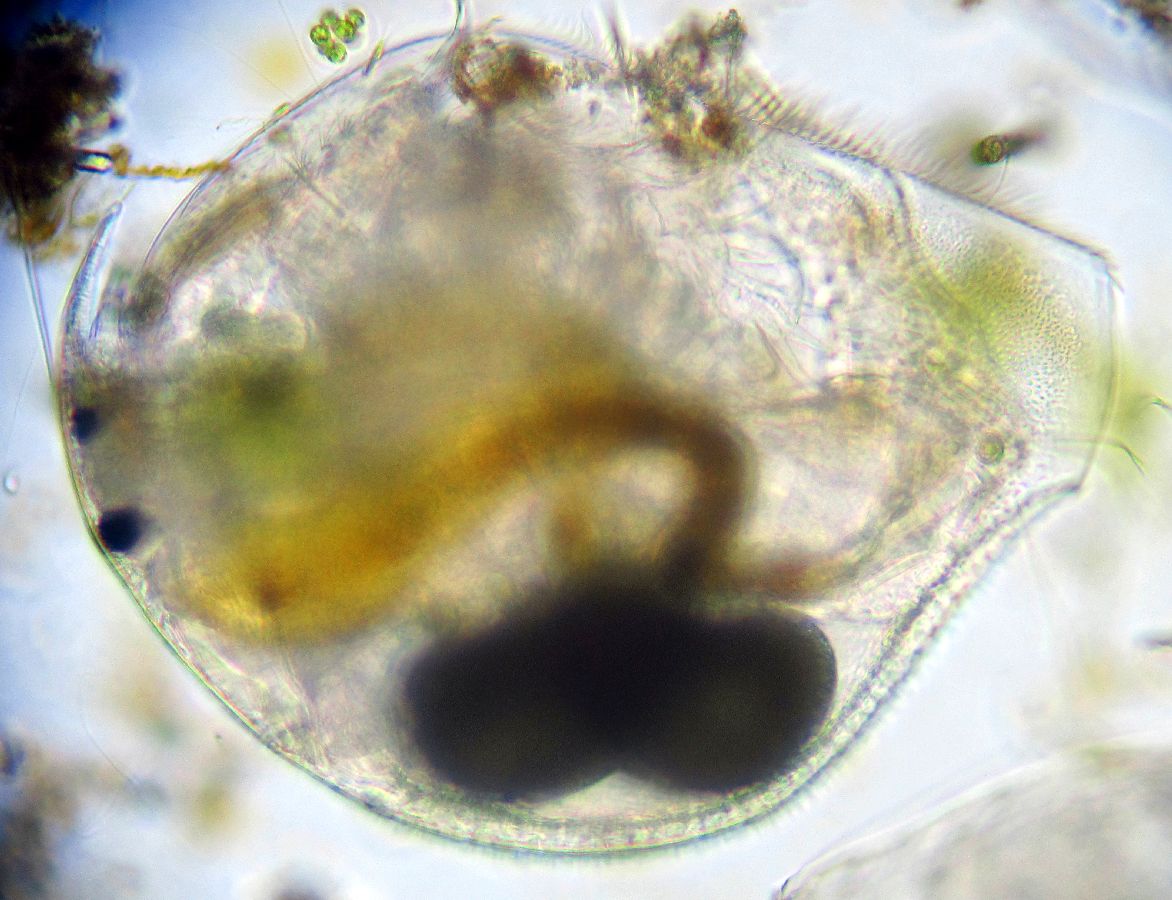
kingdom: Animalia
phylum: Arthropoda
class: Branchiopoda
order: Diplostraca
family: Chydoridae
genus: Pleuroxus
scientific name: Pleuroxus trigonellus
